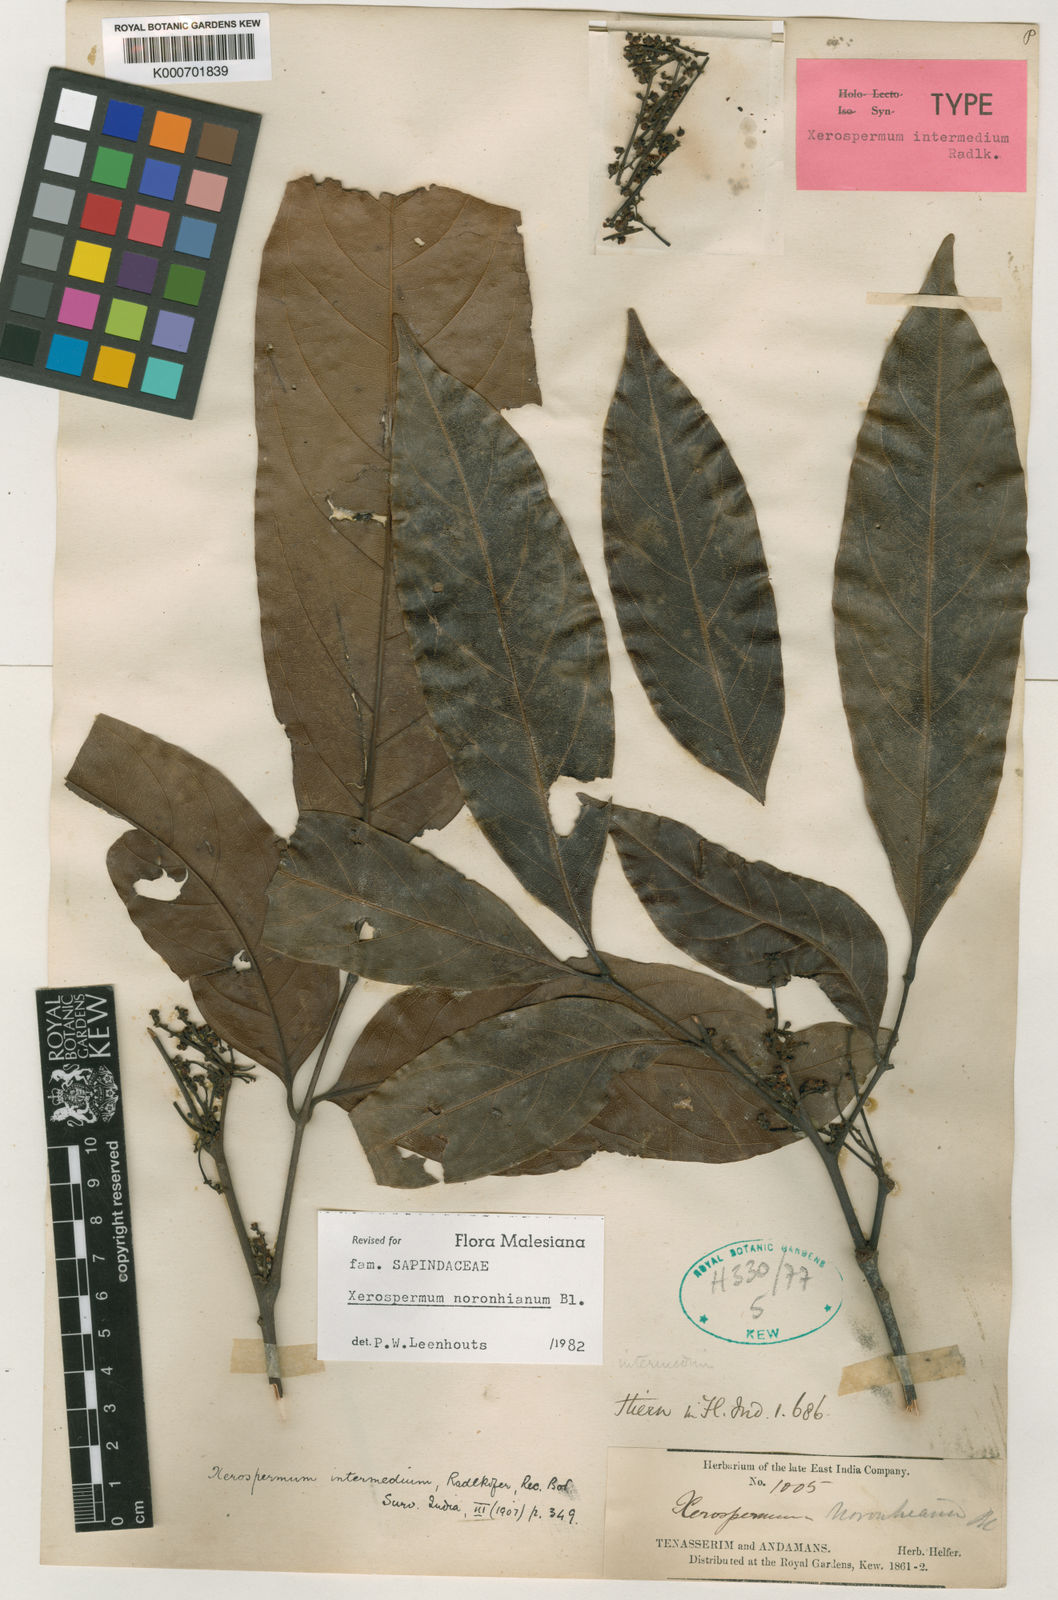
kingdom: Plantae
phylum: Tracheophyta
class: Magnoliopsida
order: Sapindales
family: Sapindaceae
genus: Xerospermum
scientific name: Xerospermum noronhianum
